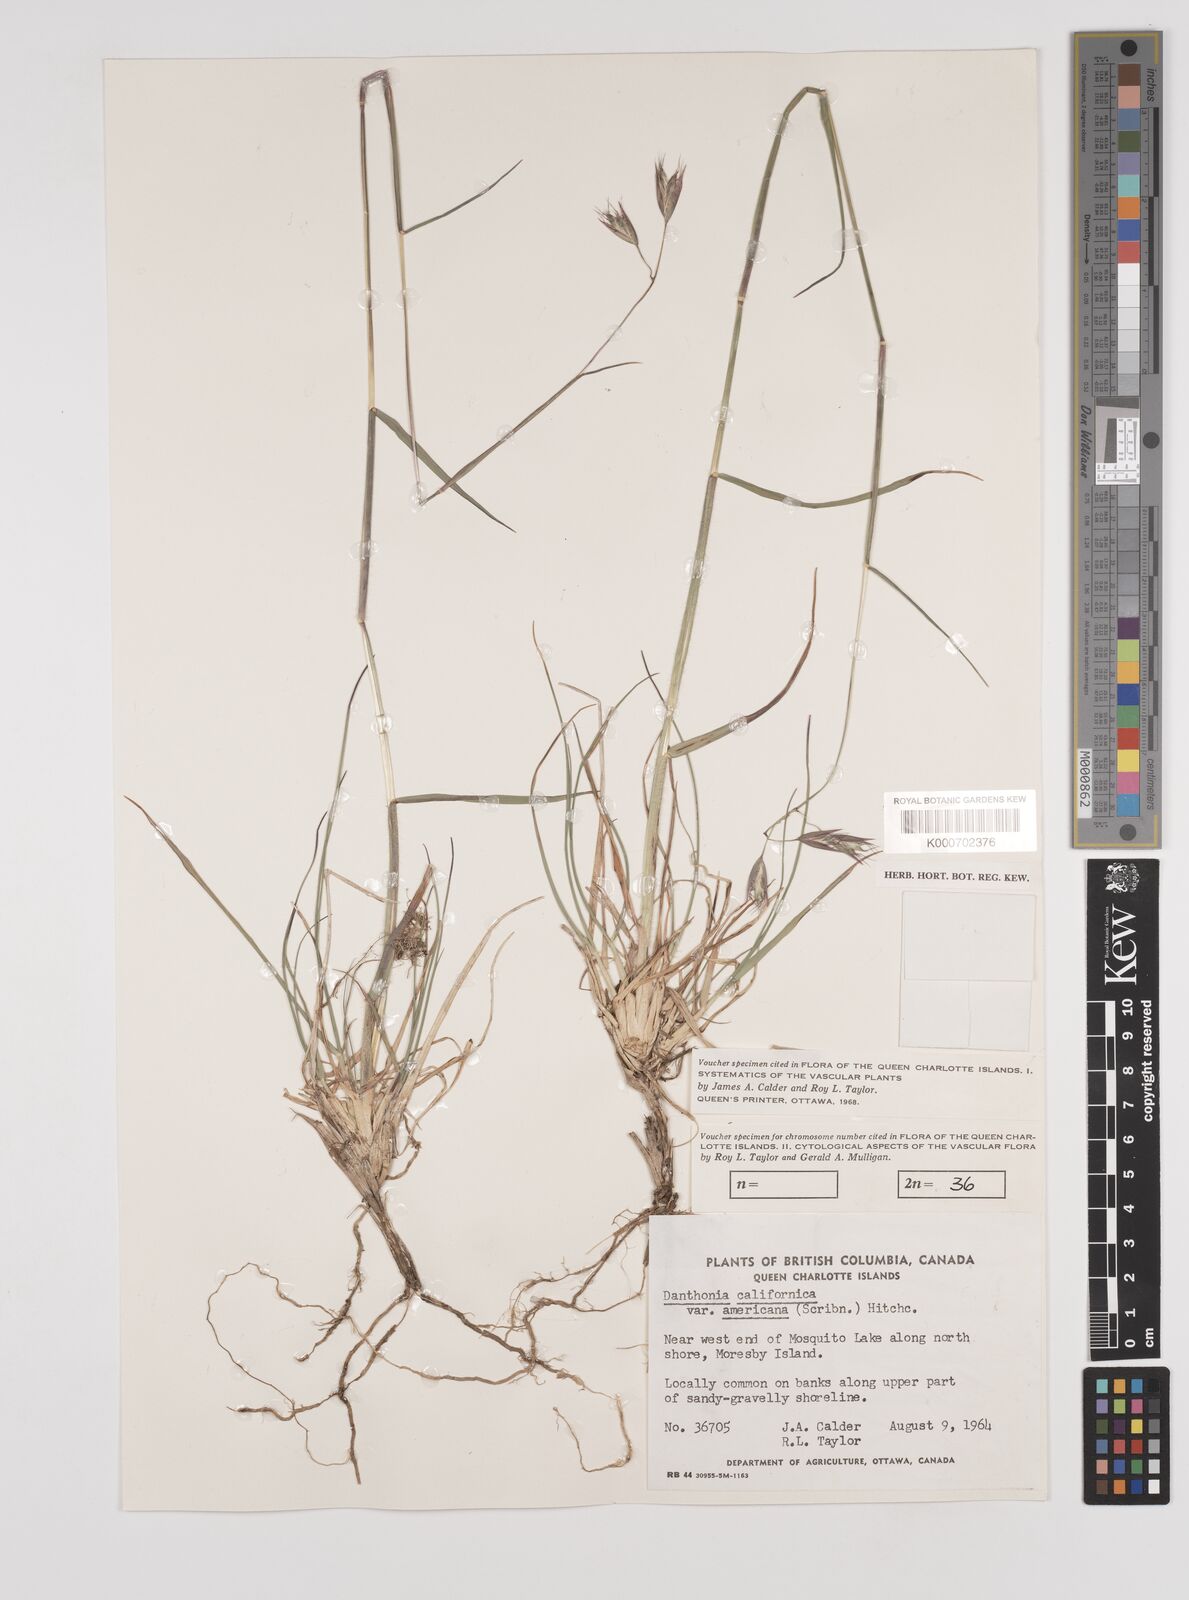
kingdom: Plantae
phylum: Tracheophyta
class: Liliopsida
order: Poales
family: Poaceae
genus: Danthonia
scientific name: Danthonia californica
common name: California oat grass
